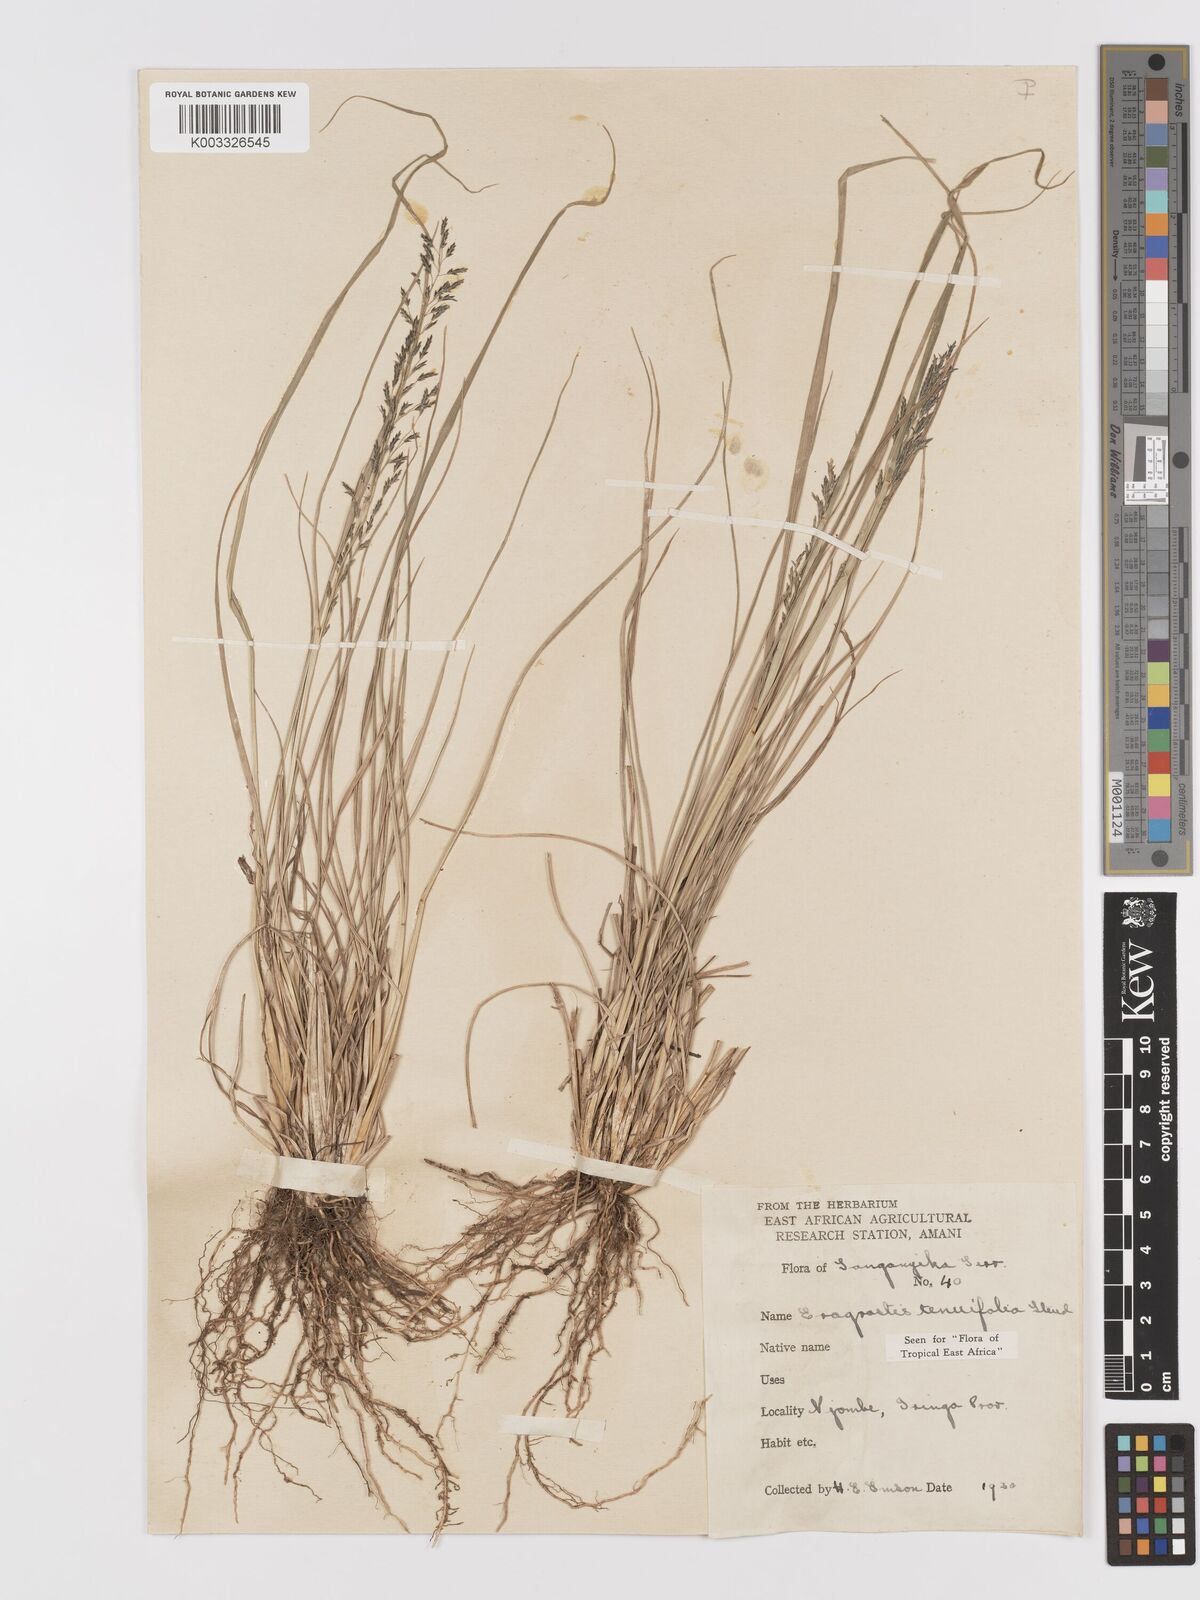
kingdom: Plantae
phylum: Tracheophyta
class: Liliopsida
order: Poales
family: Poaceae
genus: Eragrostis
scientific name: Eragrostis tenuifolia
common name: Elastic grass
